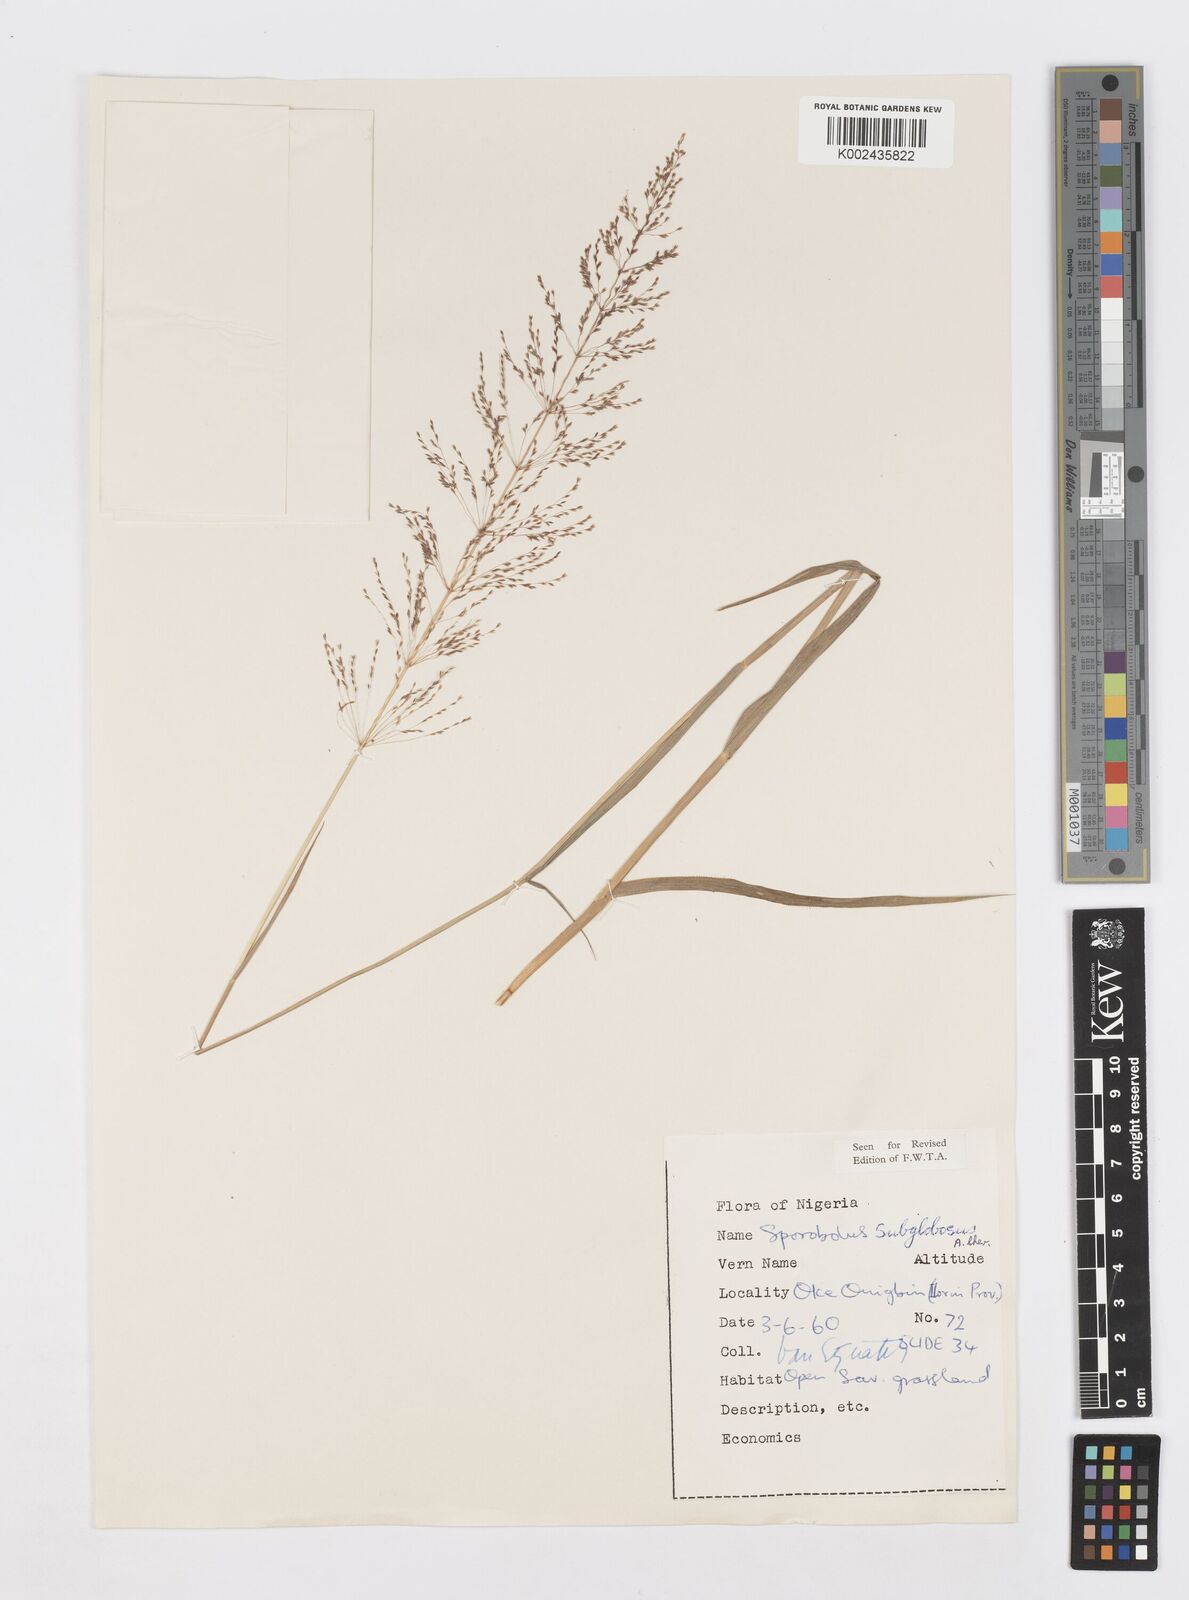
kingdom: Plantae
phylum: Tracheophyta
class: Liliopsida
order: Poales
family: Poaceae
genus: Sporobolus
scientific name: Sporobolus subglobosus
